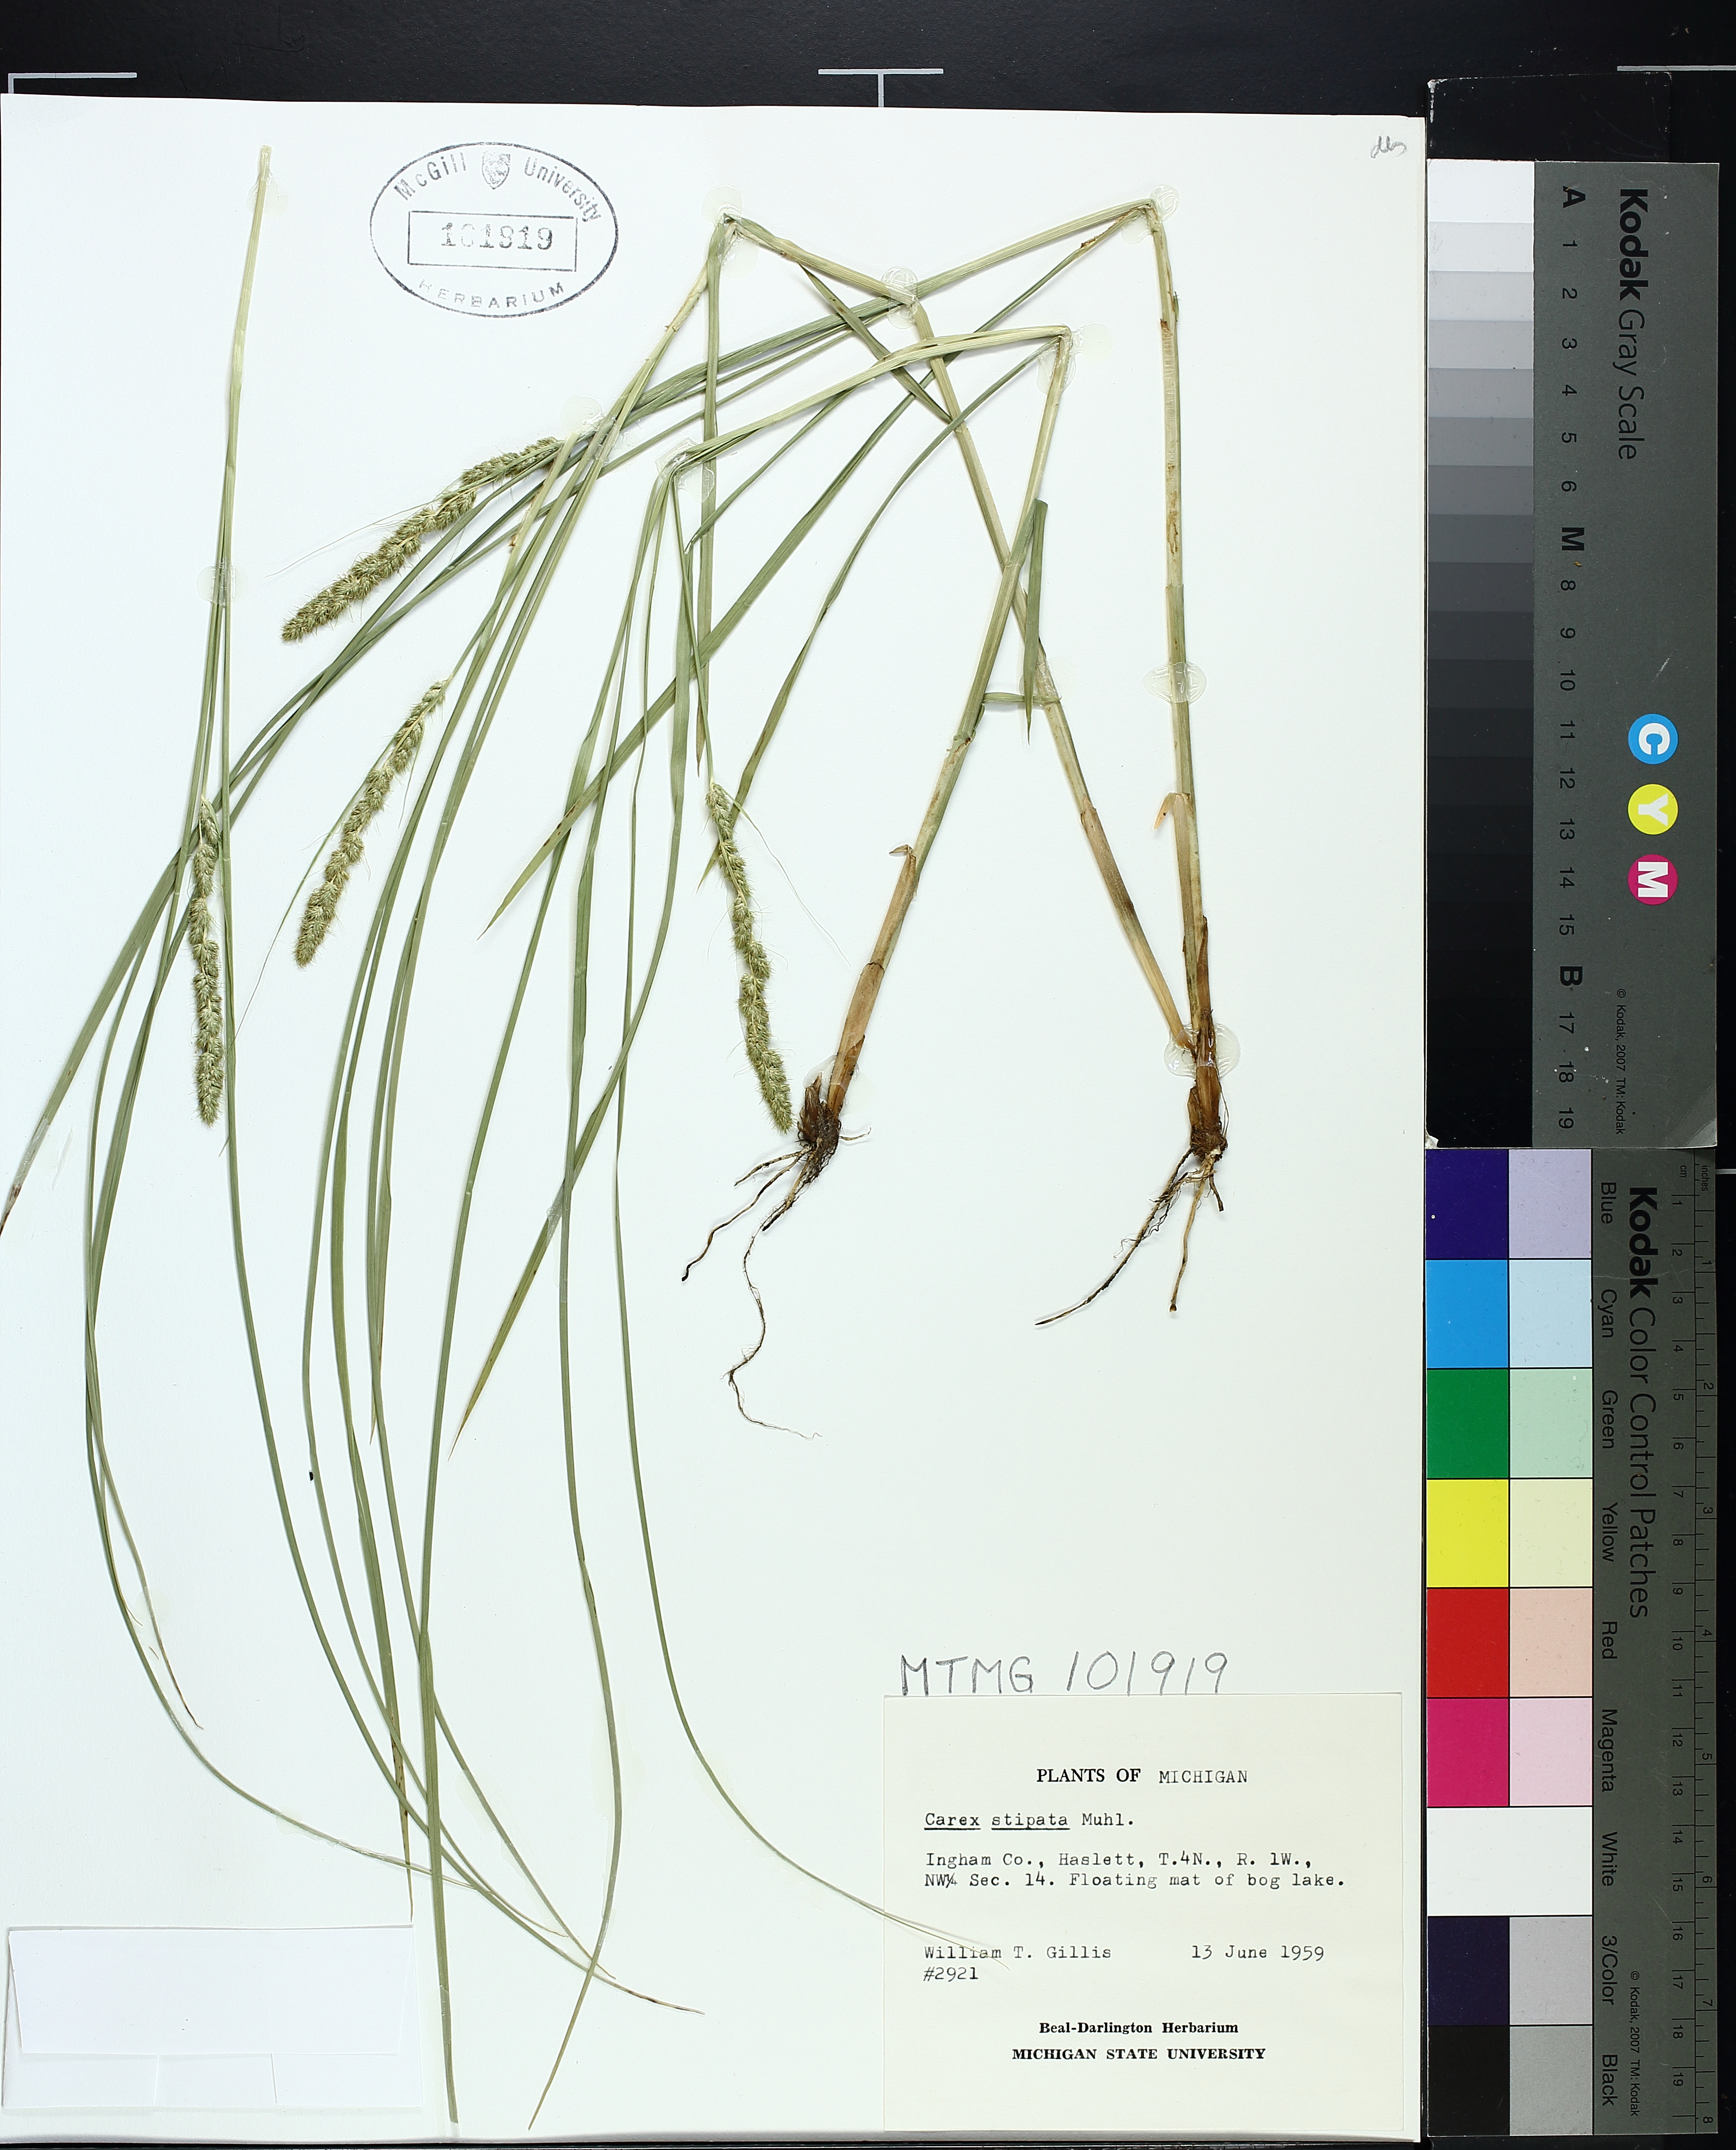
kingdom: Plantae
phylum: Tracheophyta
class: Liliopsida
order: Poales
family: Cyperaceae
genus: Carex
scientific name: Carex stipata
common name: Awl-fruited sedge
